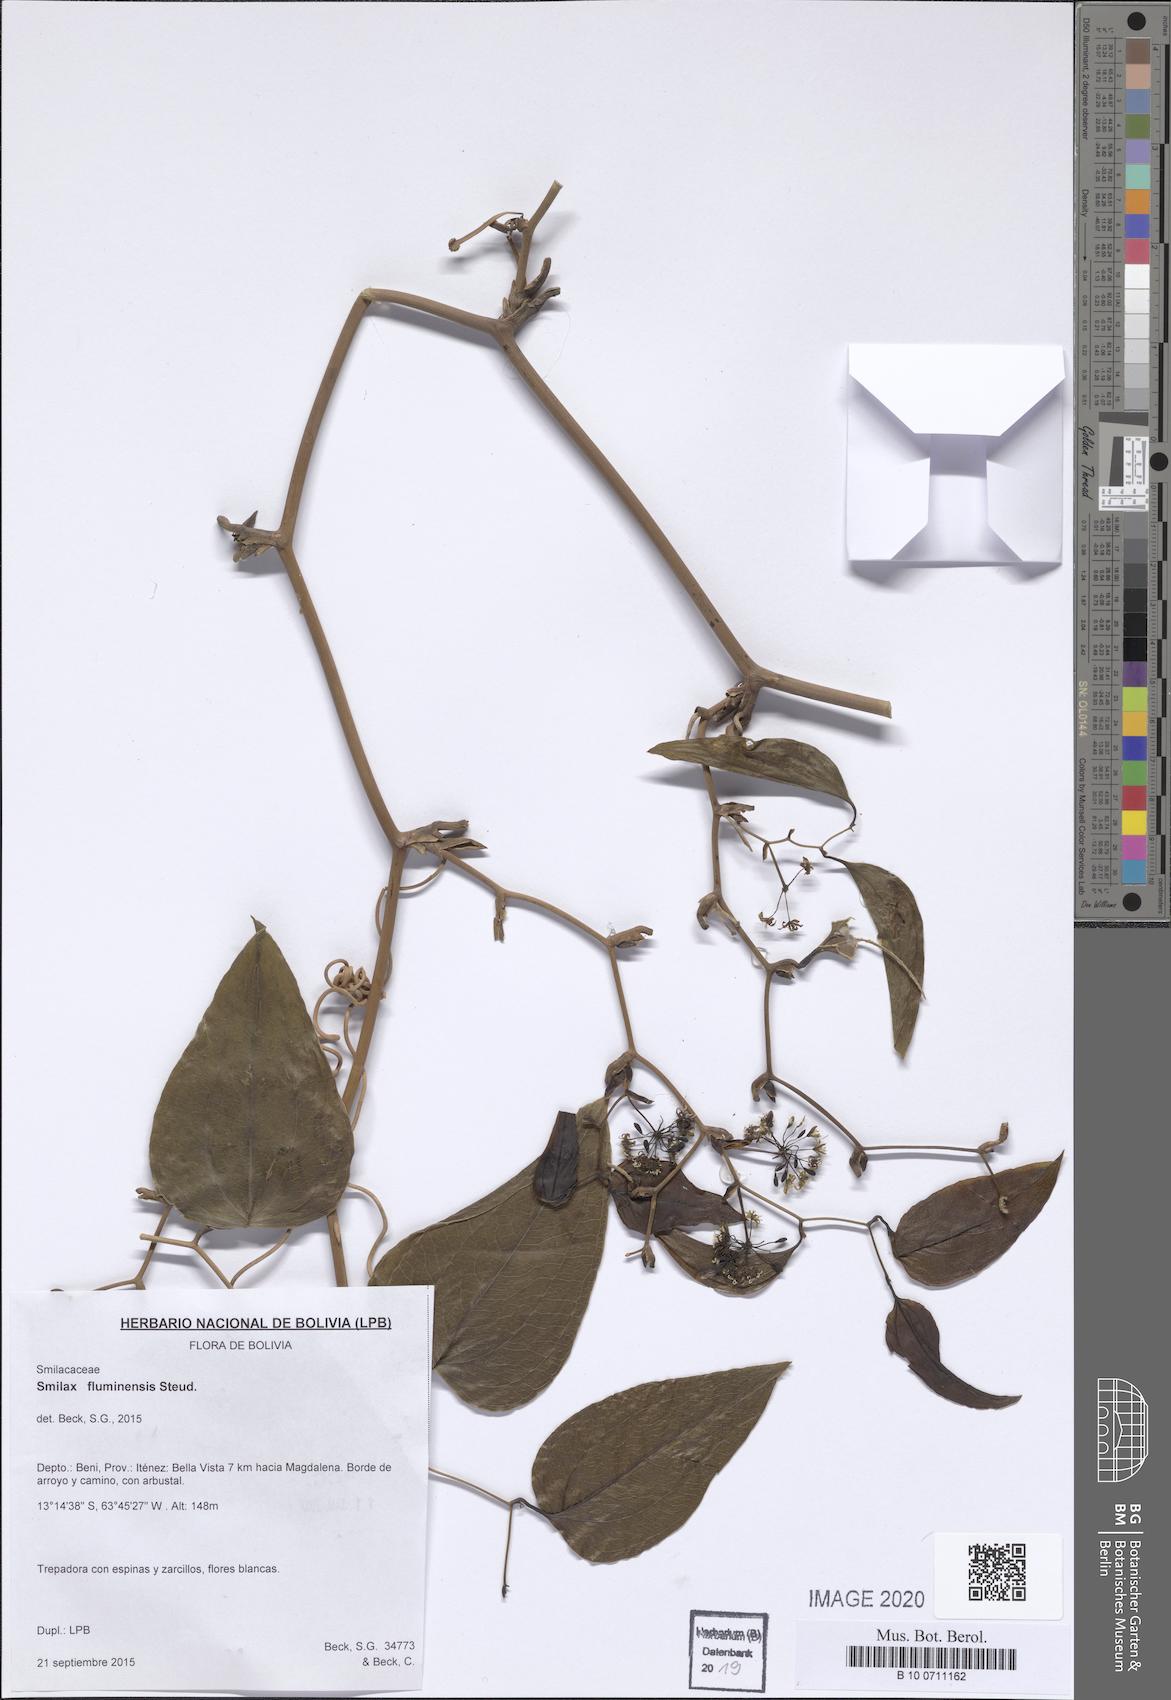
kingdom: Plantae
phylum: Tracheophyta
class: Liliopsida
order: Liliales
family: Smilacaceae
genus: Smilax
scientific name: Smilax fluminensis
